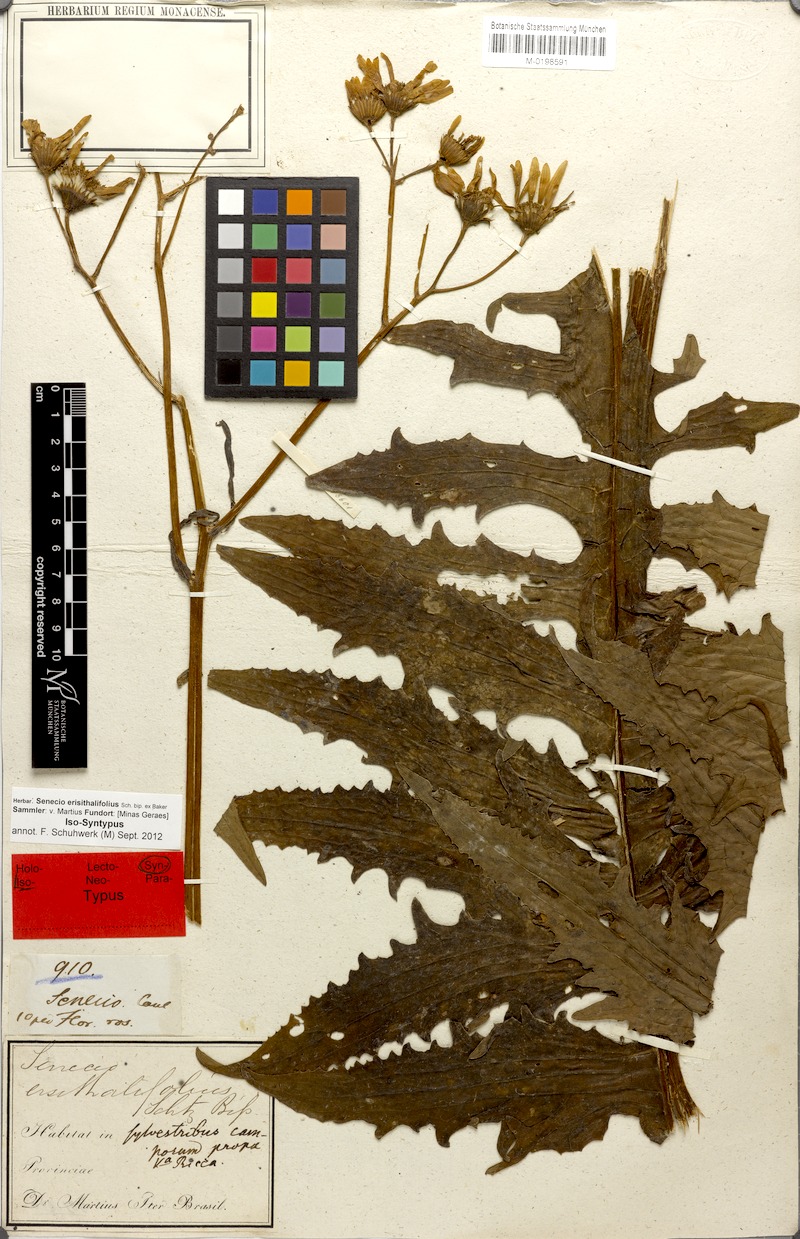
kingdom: Plantae
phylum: Tracheophyta
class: Magnoliopsida
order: Asterales
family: Asteraceae
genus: Senecio
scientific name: Senecio erisithalifolius
